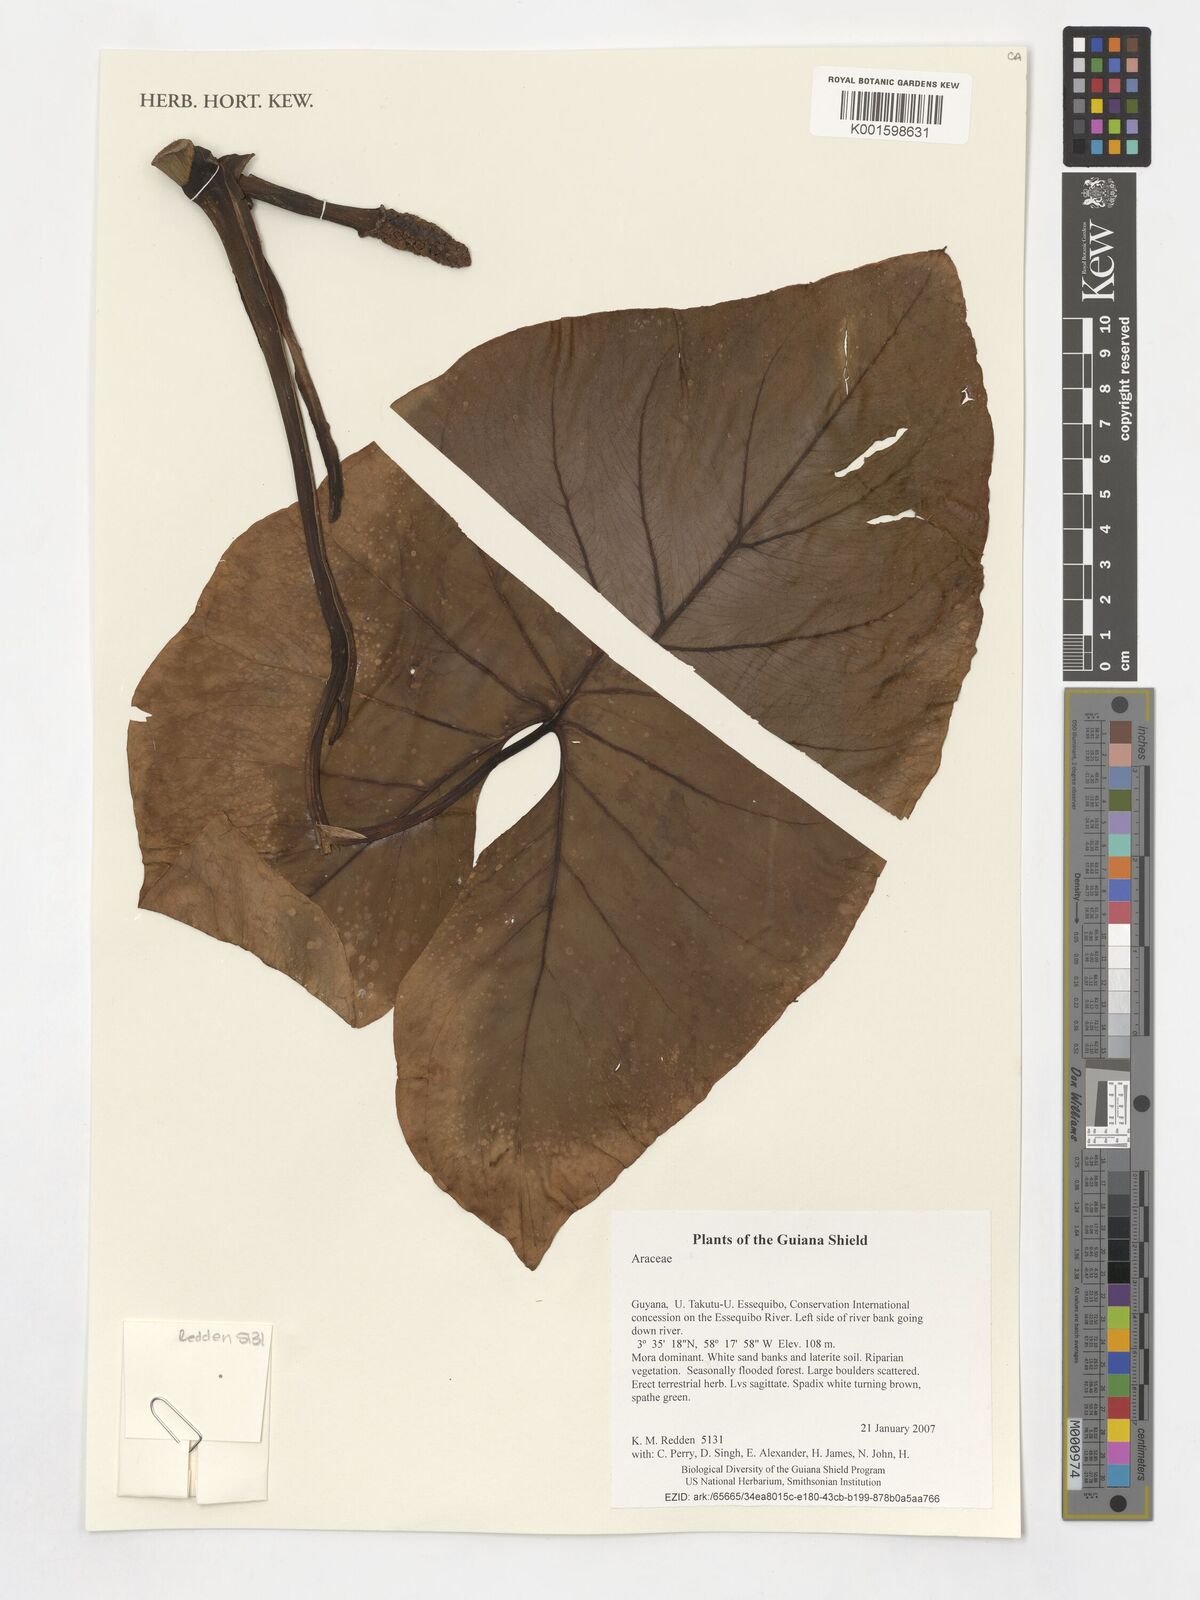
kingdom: Plantae
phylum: Tracheophyta
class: Liliopsida
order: Alismatales
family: Araceae
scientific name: Araceae
